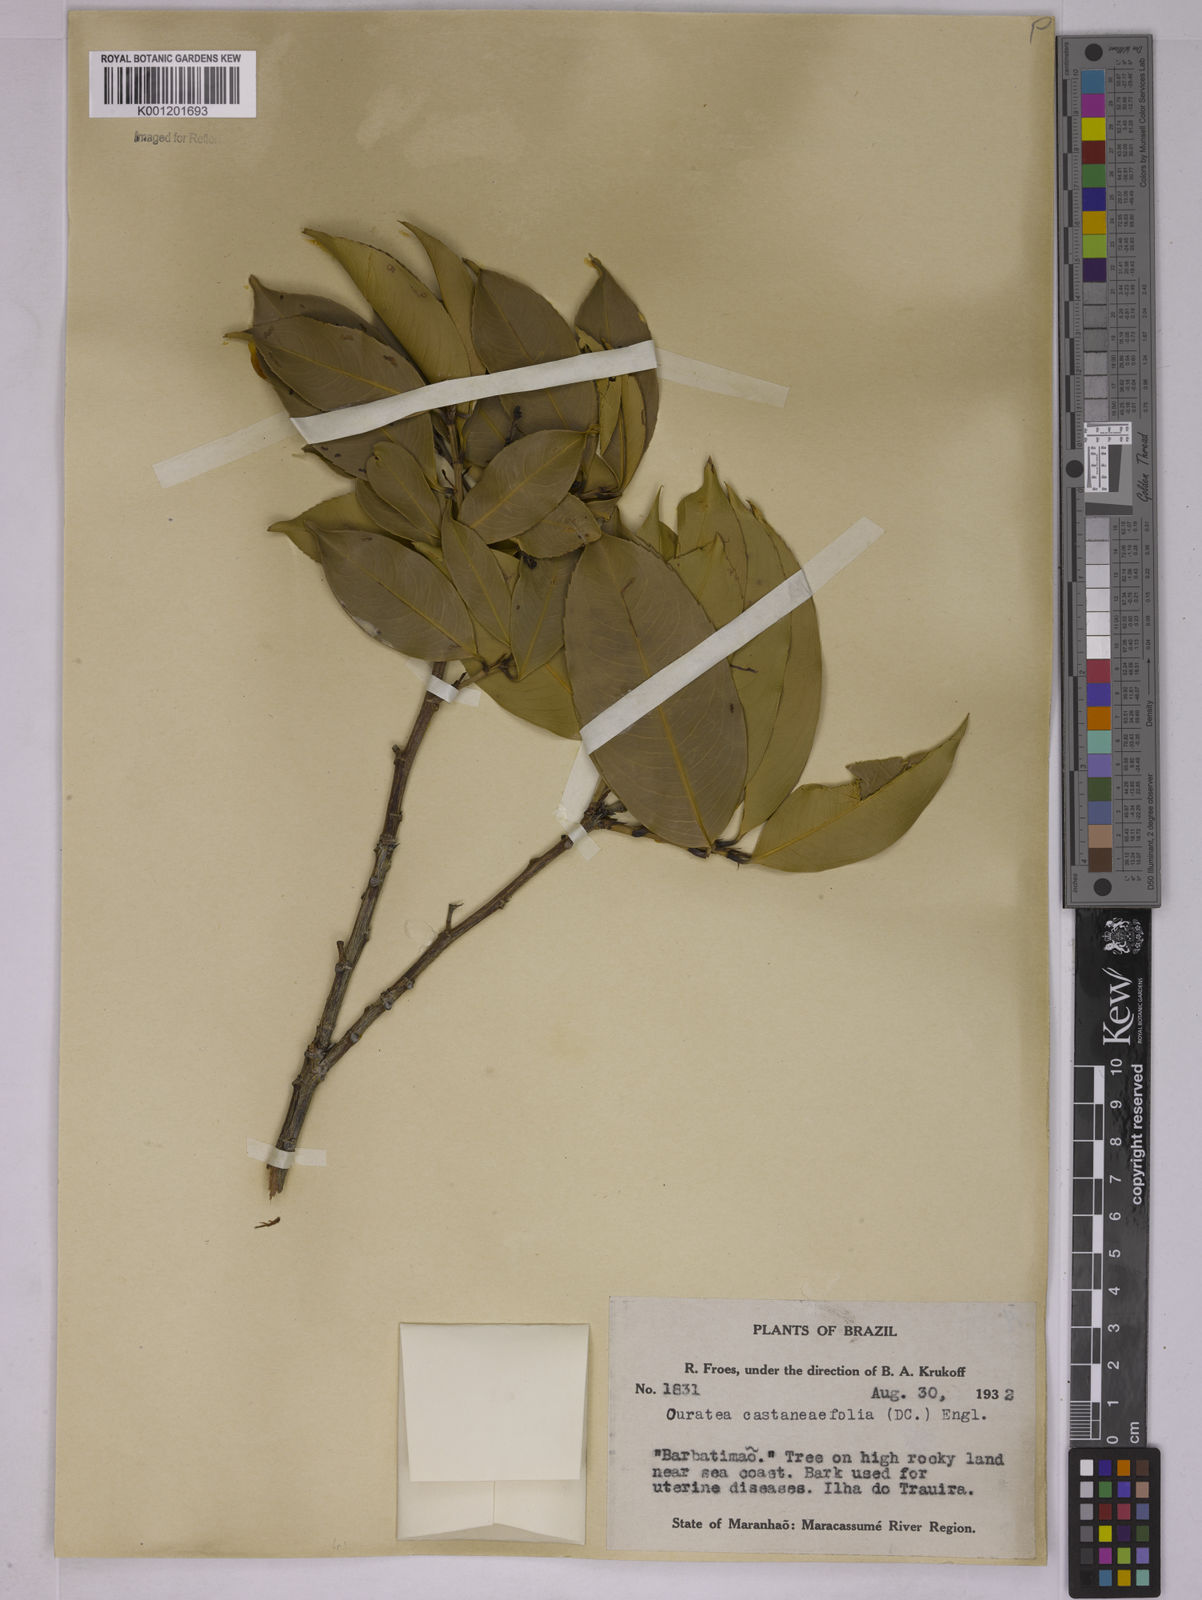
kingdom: Plantae
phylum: Tracheophyta
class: Magnoliopsida
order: Malpighiales
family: Ochnaceae
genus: Ouratea
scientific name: Ouratea castaneifolia
